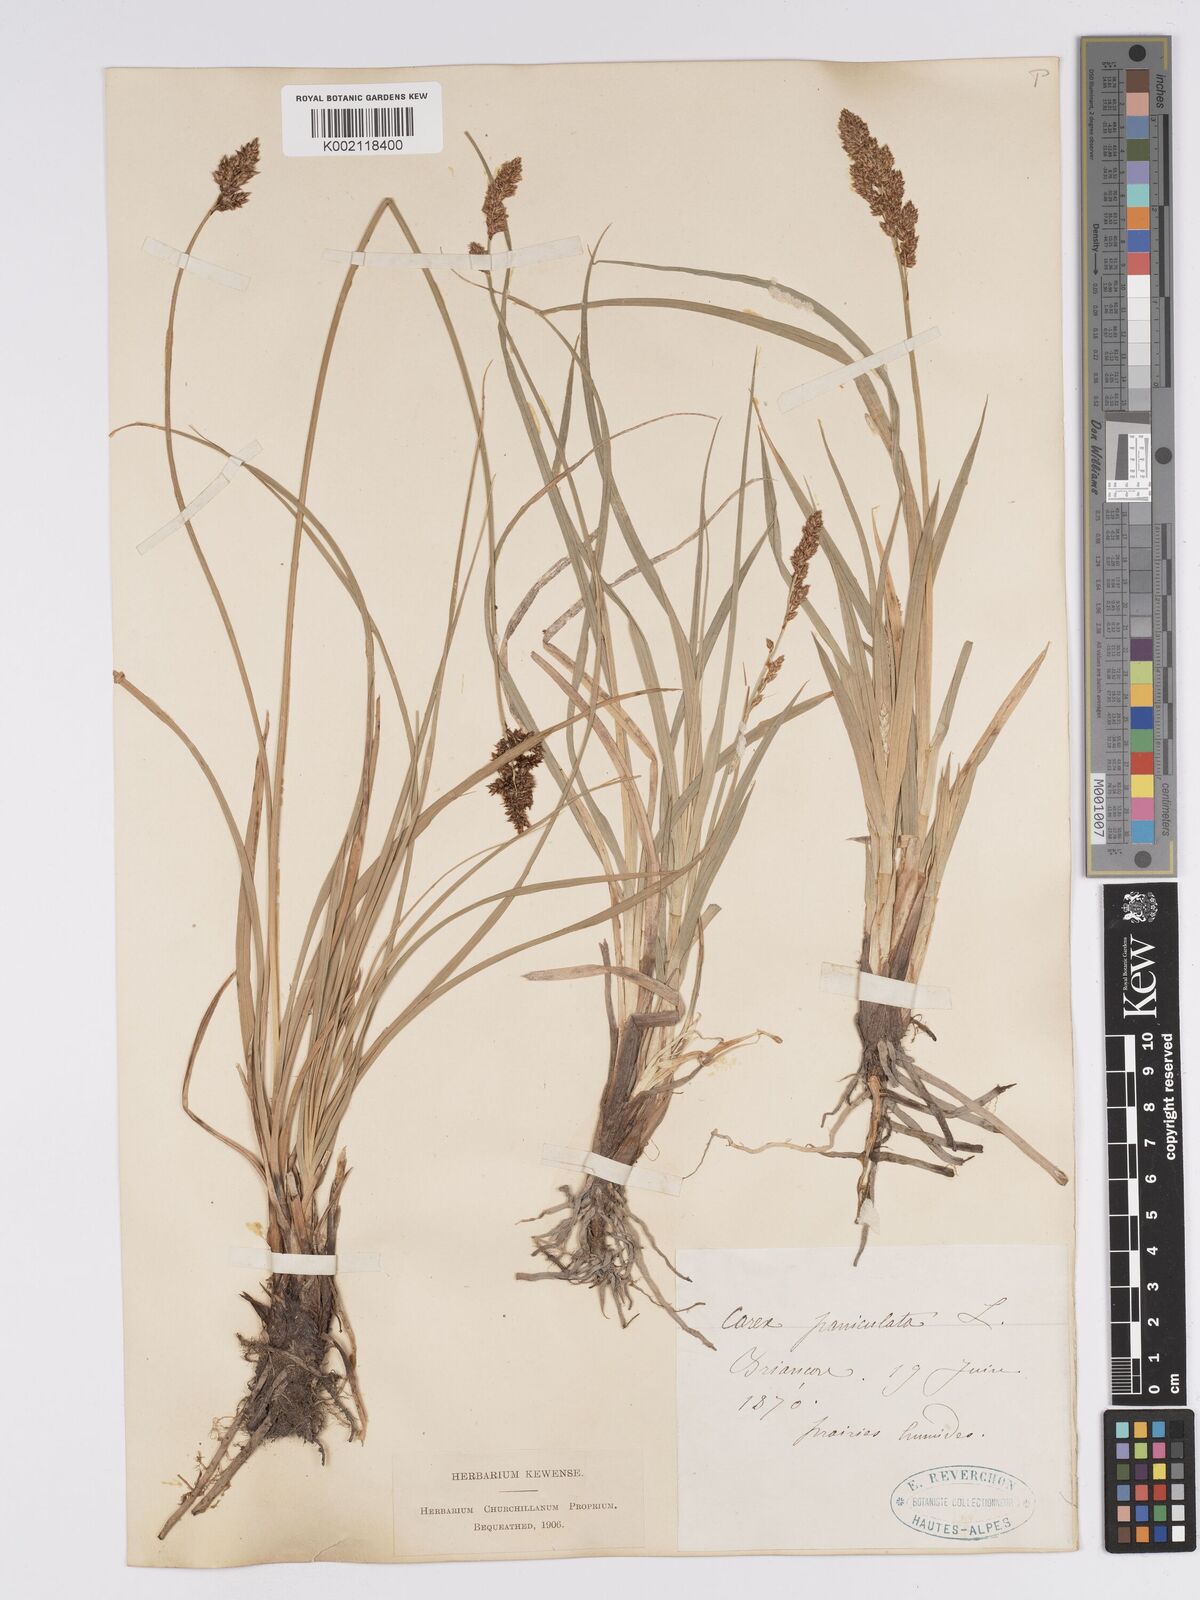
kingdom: Plantae
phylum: Tracheophyta
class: Liliopsida
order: Poales
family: Cyperaceae
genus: Carex
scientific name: Carex paniculata
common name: Greater tussock-sedge
